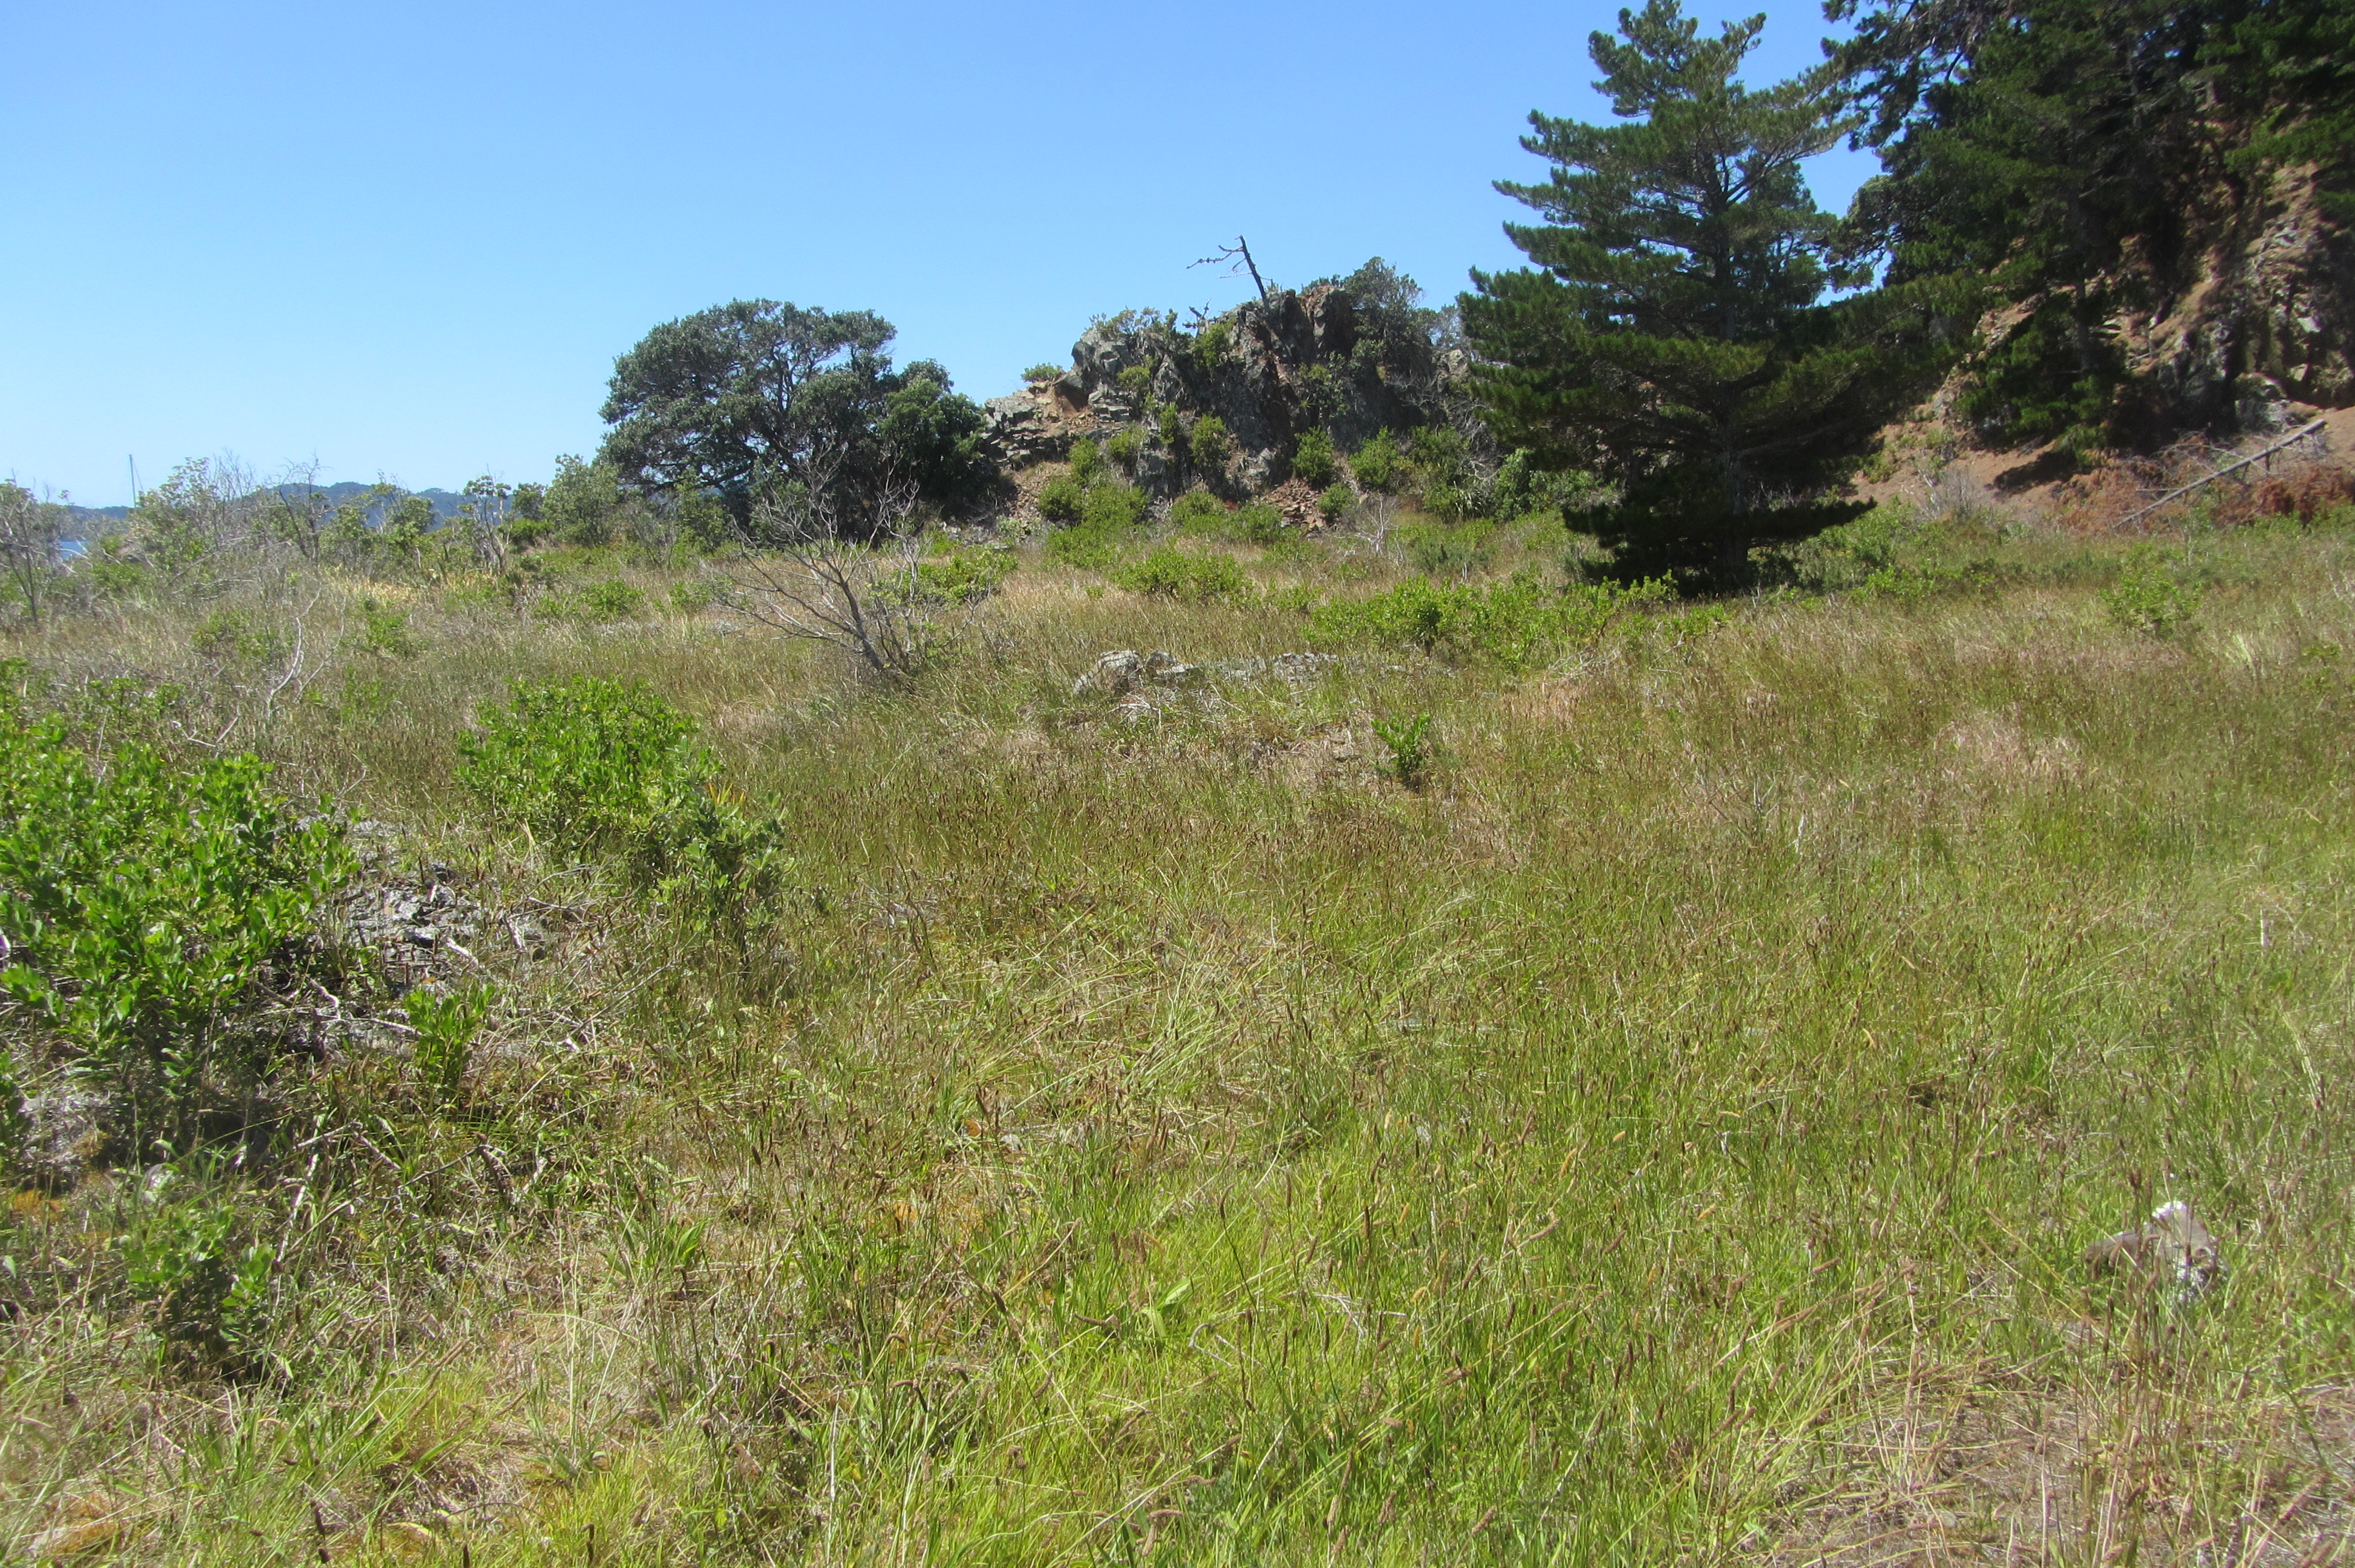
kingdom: Plantae
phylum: Tracheophyta
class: Liliopsida
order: Asparagales
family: Iridaceae
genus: Crocosmia
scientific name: Crocosmia crocosmiiflora
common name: Montbretia
